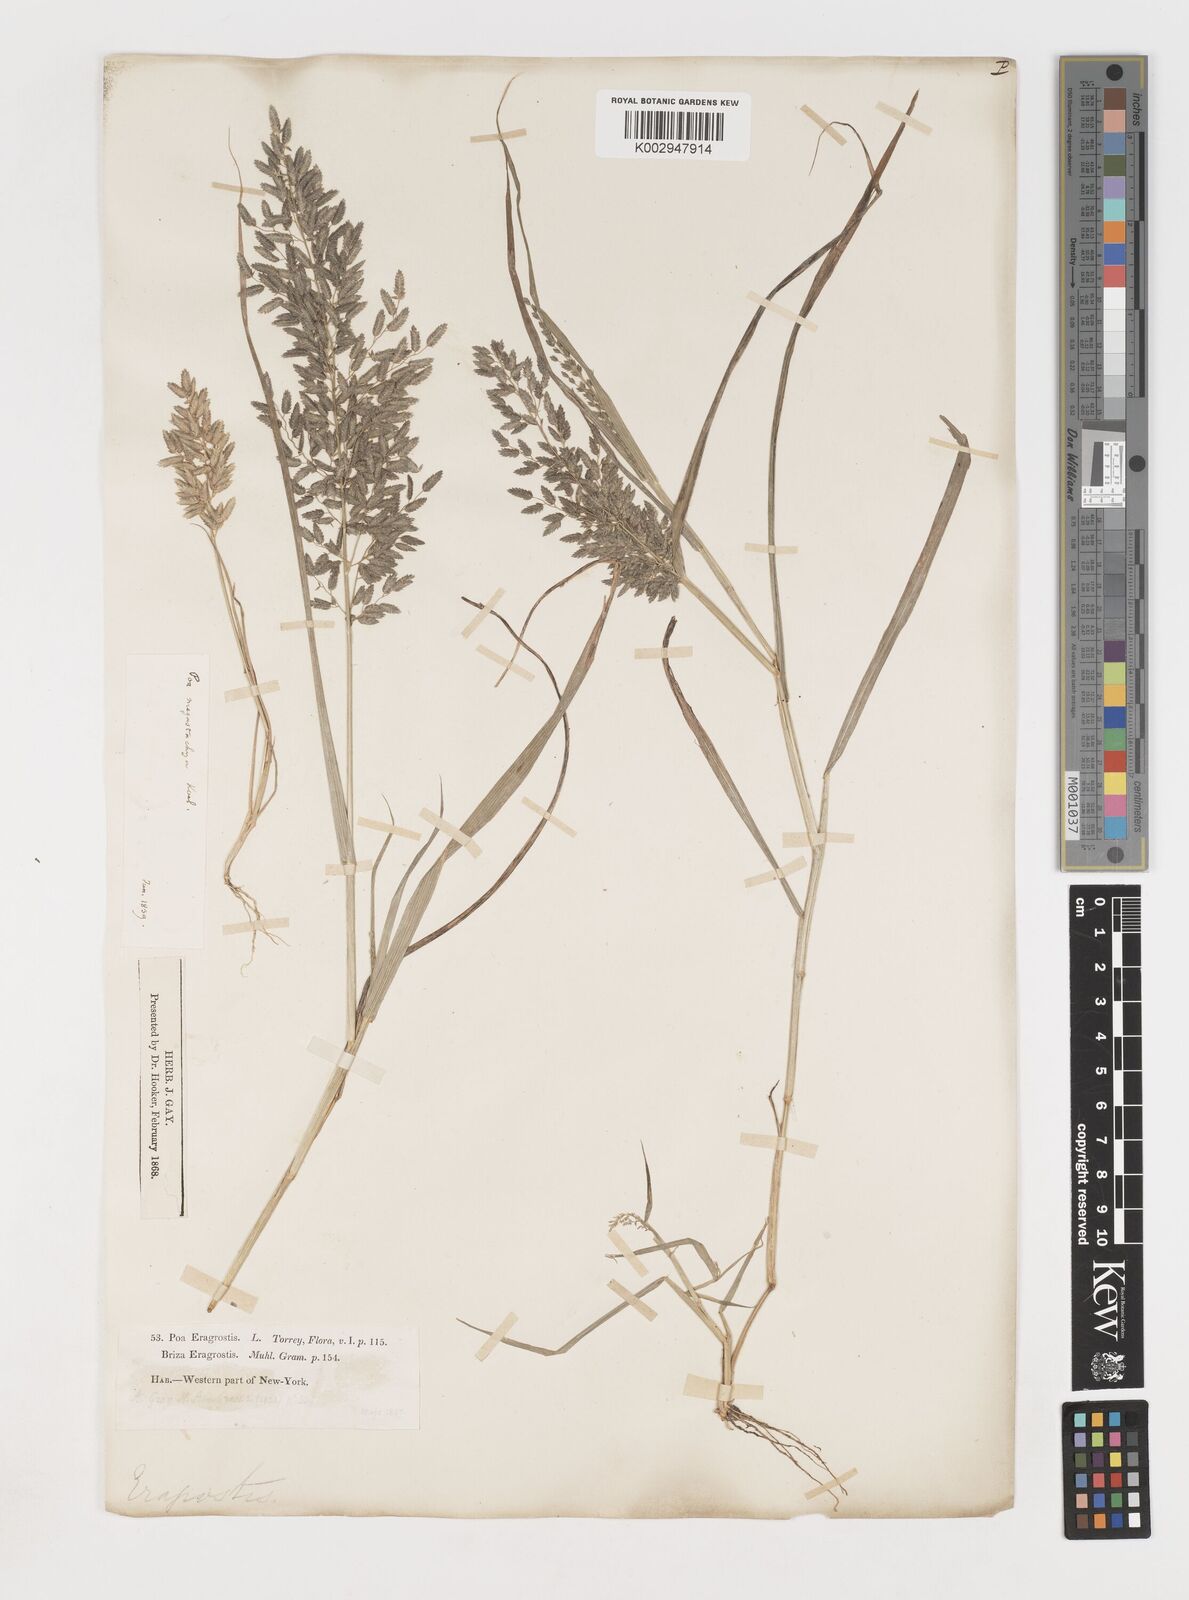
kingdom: Plantae
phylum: Tracheophyta
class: Liliopsida
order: Poales
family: Poaceae
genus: Eragrostis
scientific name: Eragrostis
